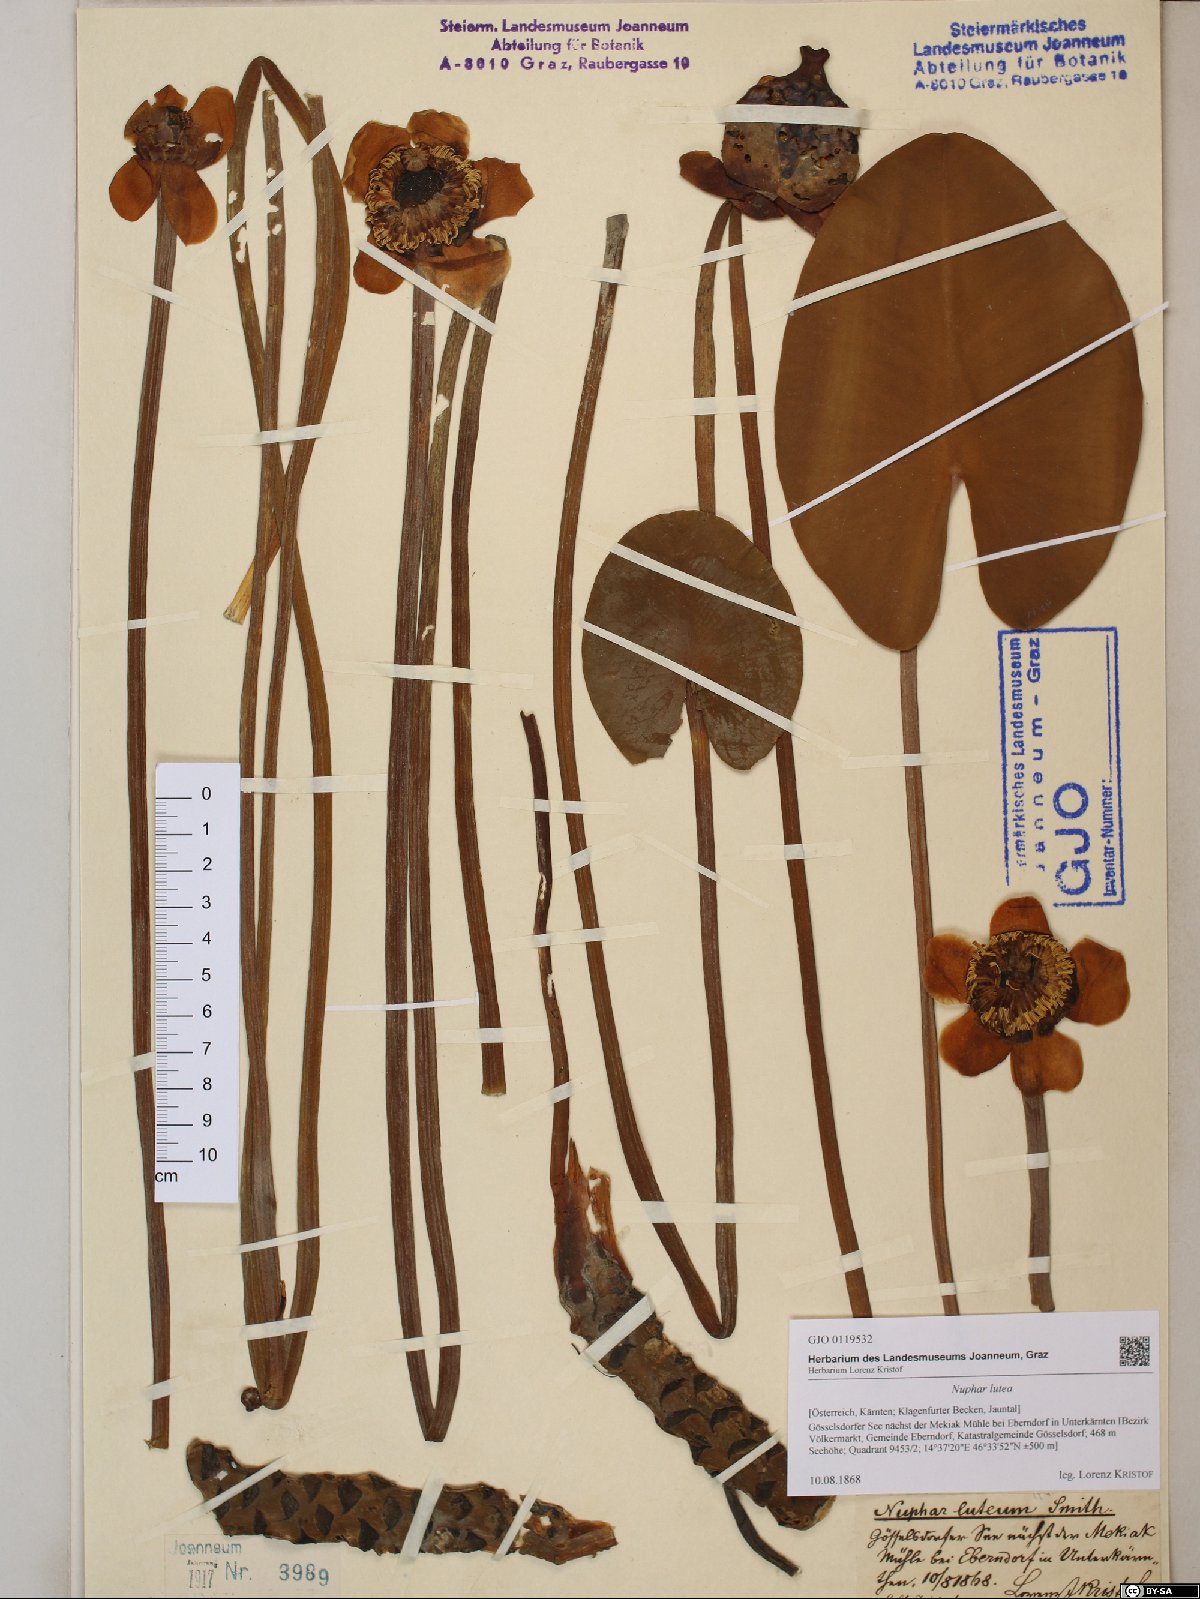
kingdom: Plantae
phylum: Tracheophyta
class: Magnoliopsida
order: Nymphaeales
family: Nymphaeaceae
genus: Nuphar
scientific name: Nuphar lutea
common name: Yellow water-lily
